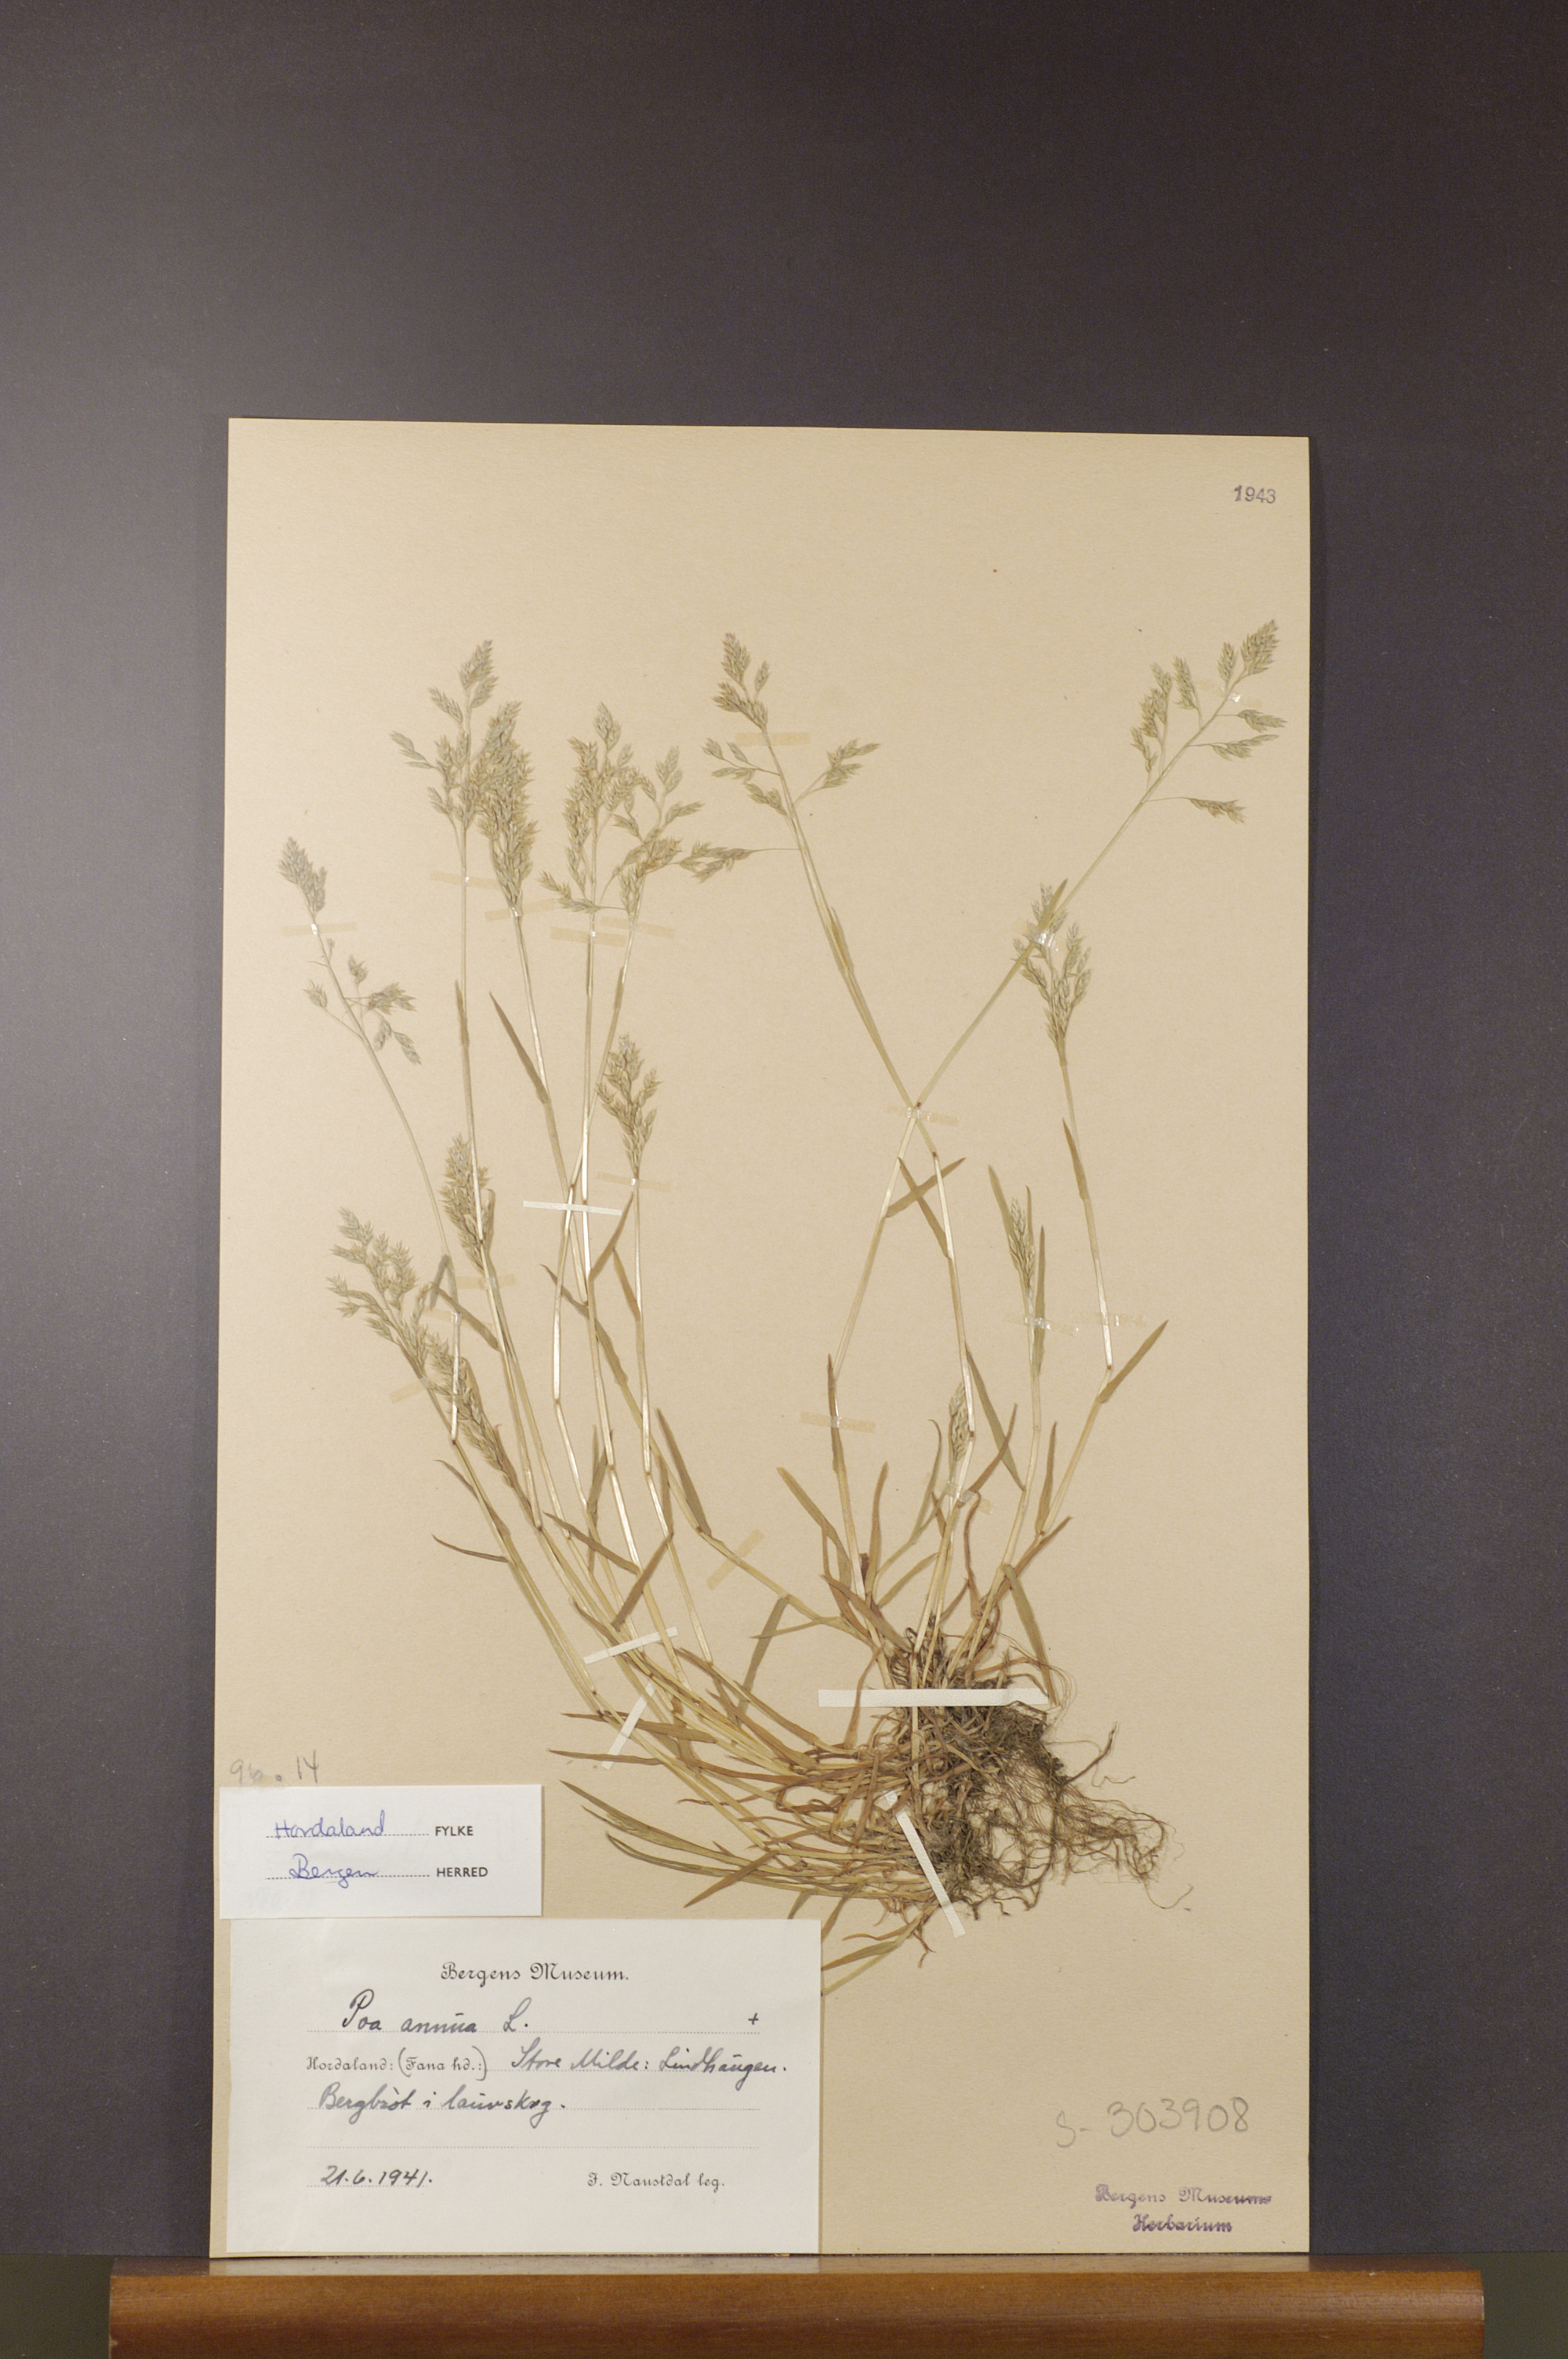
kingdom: Plantae
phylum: Tracheophyta
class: Liliopsida
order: Poales
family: Poaceae
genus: Poa
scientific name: Poa annua
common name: Annual bluegrass
